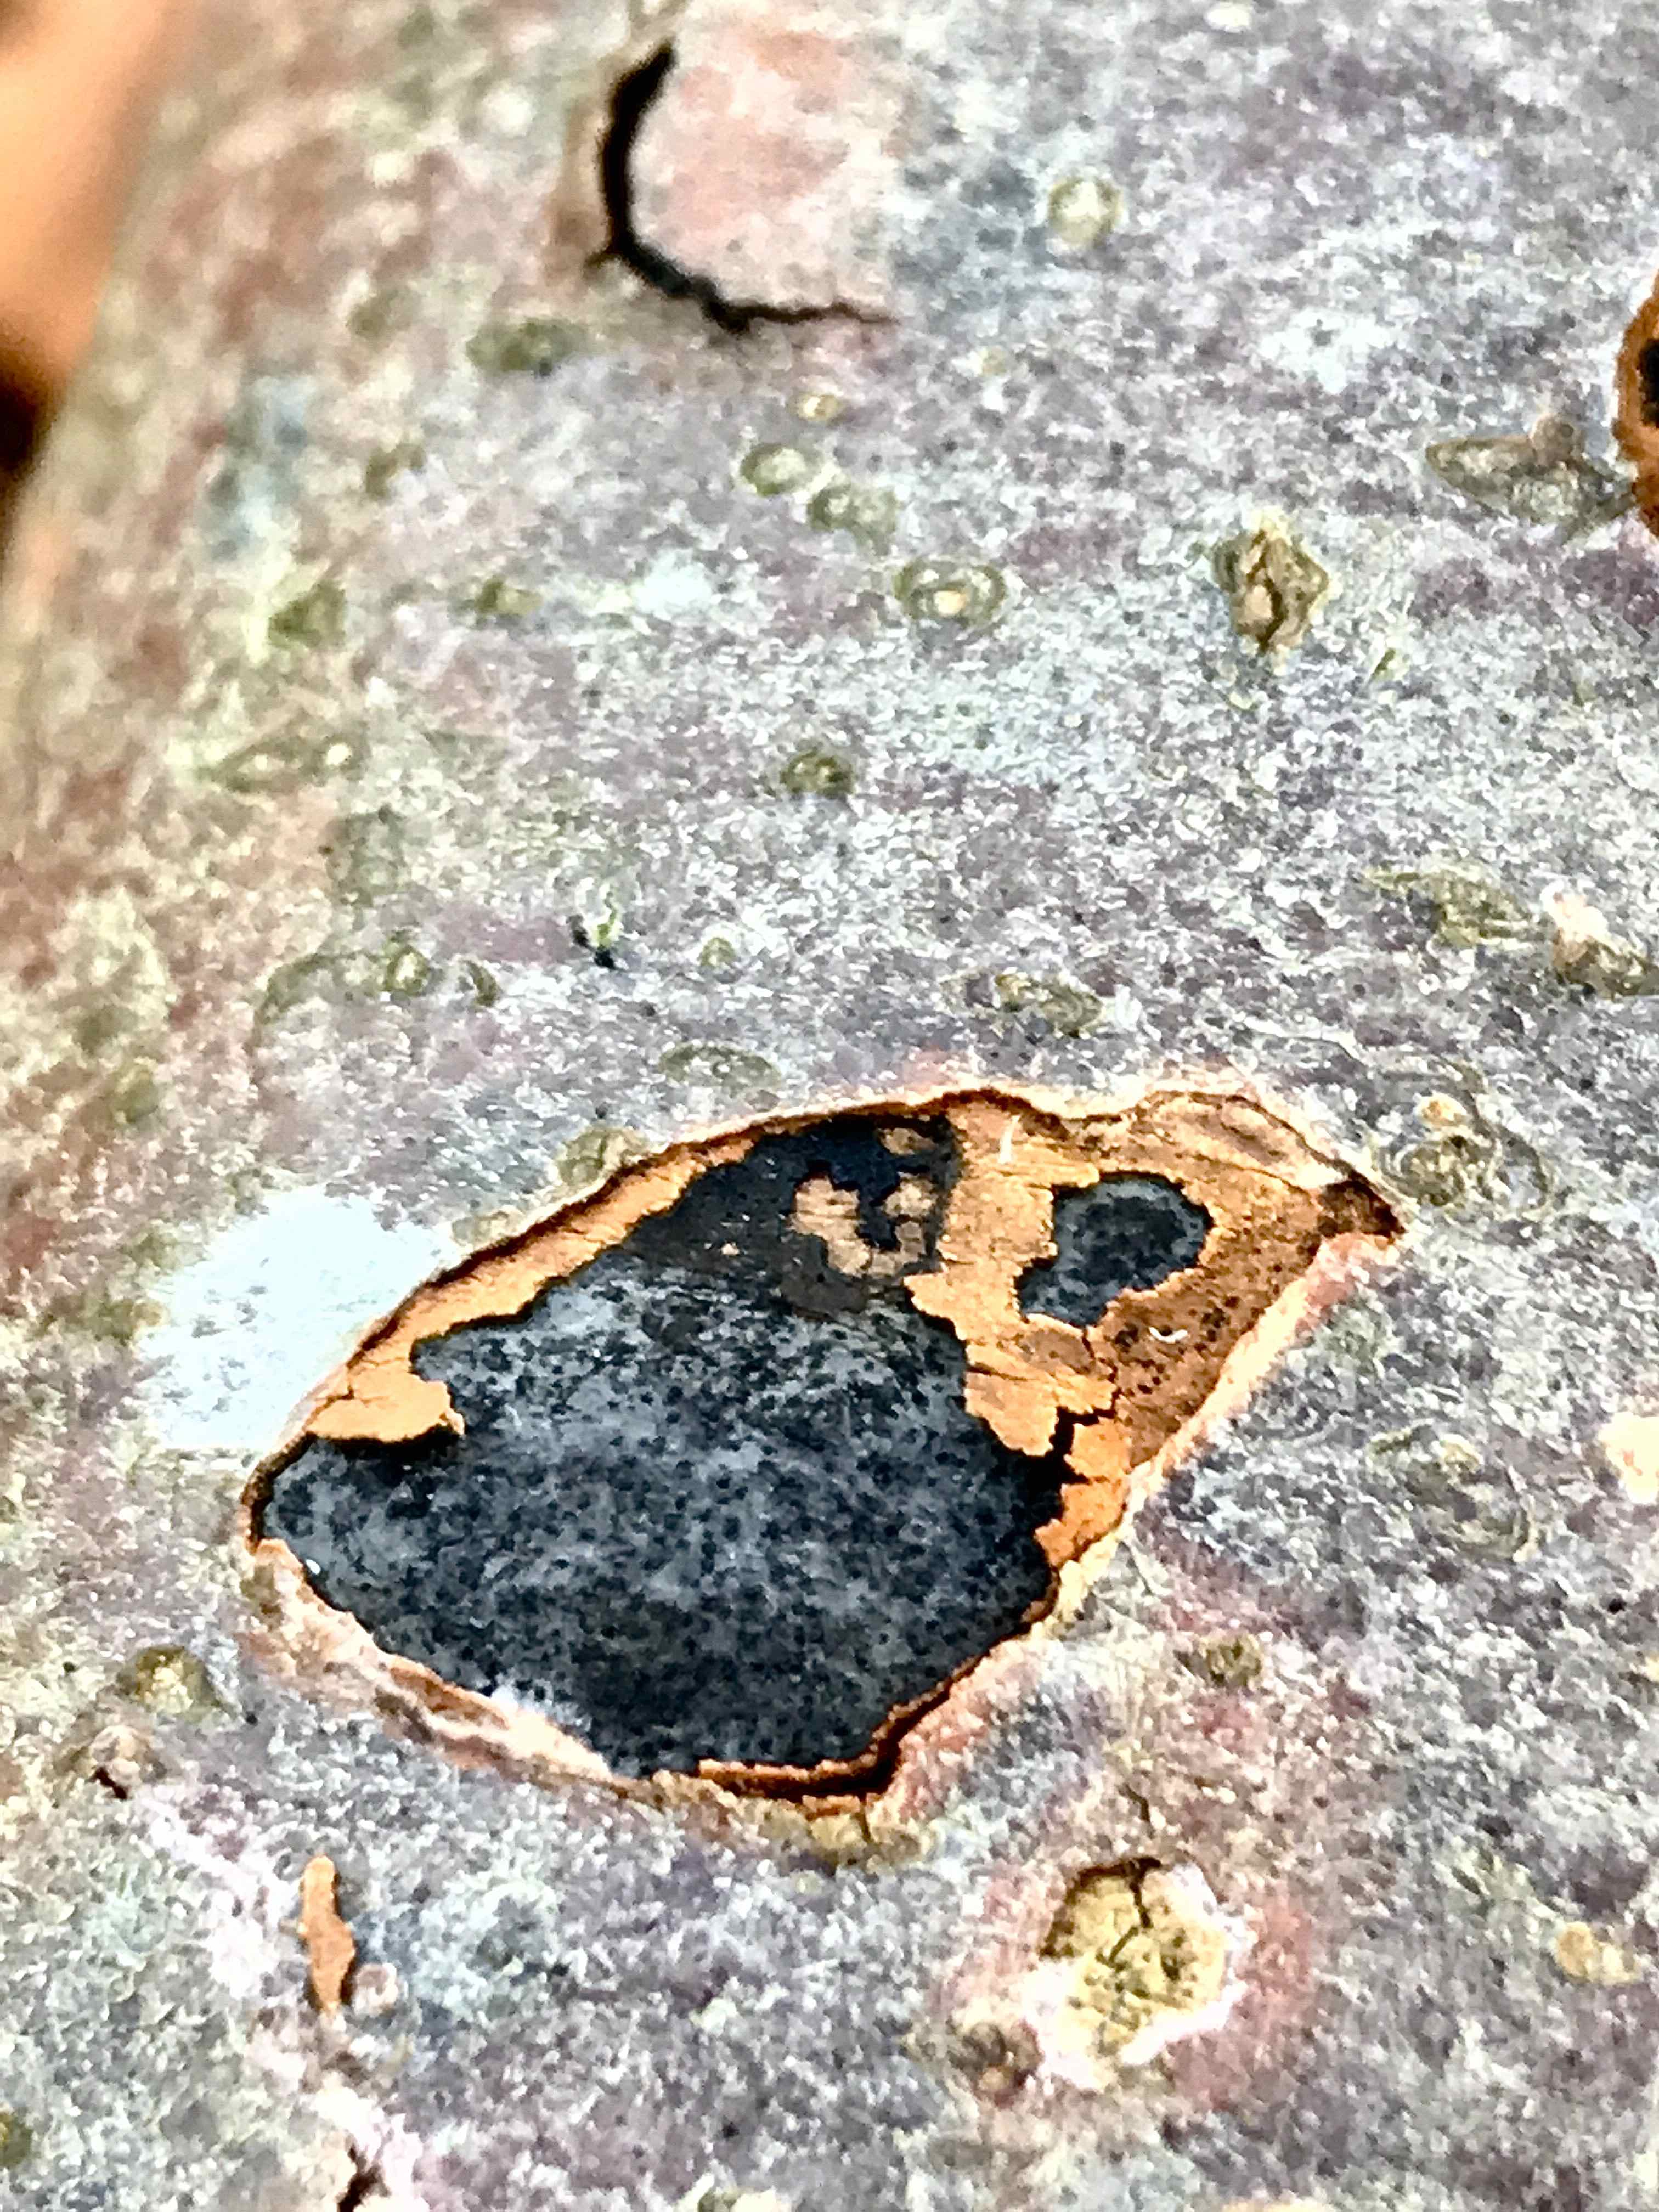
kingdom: Fungi
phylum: Ascomycota
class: Sordariomycetes
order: Xylariales
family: Graphostromataceae
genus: Biscogniauxia
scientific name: Biscogniauxia nummularia
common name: bøge-kulskive
